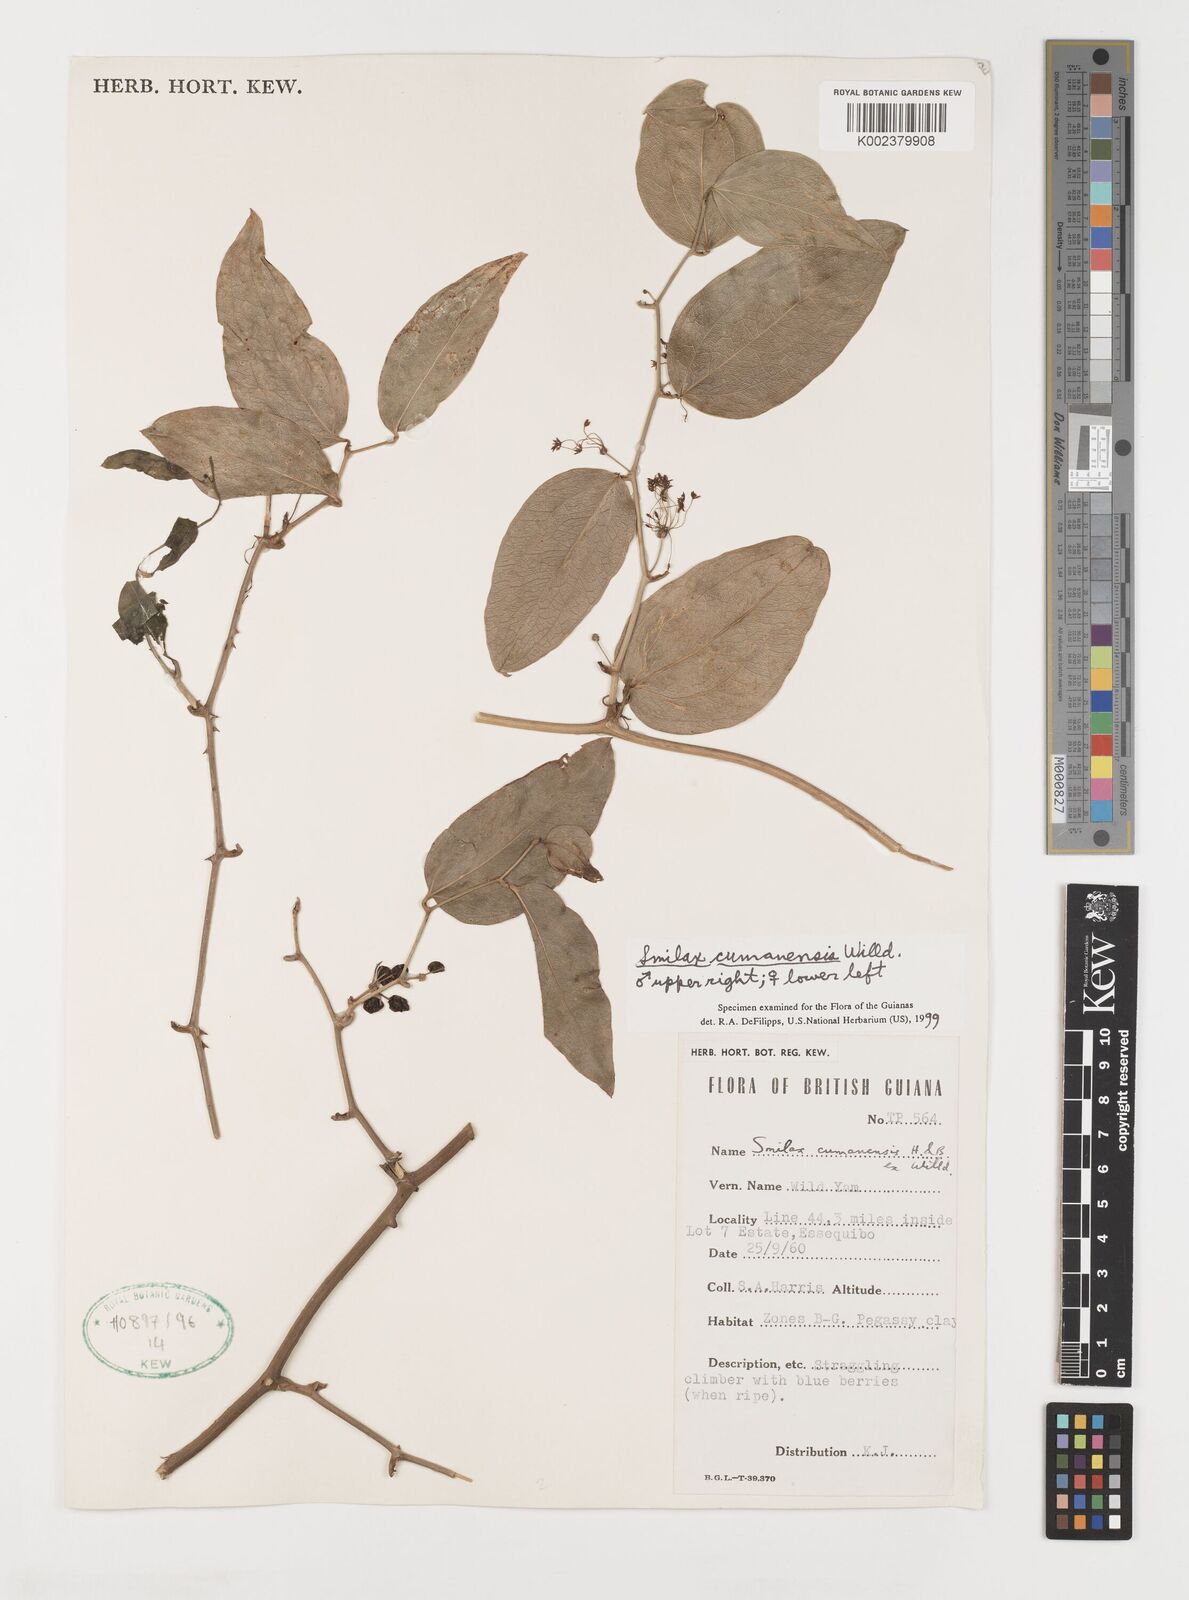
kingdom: Plantae
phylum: Tracheophyta
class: Liliopsida
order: Liliales
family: Smilacaceae
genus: Smilax
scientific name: Smilax oblongata
